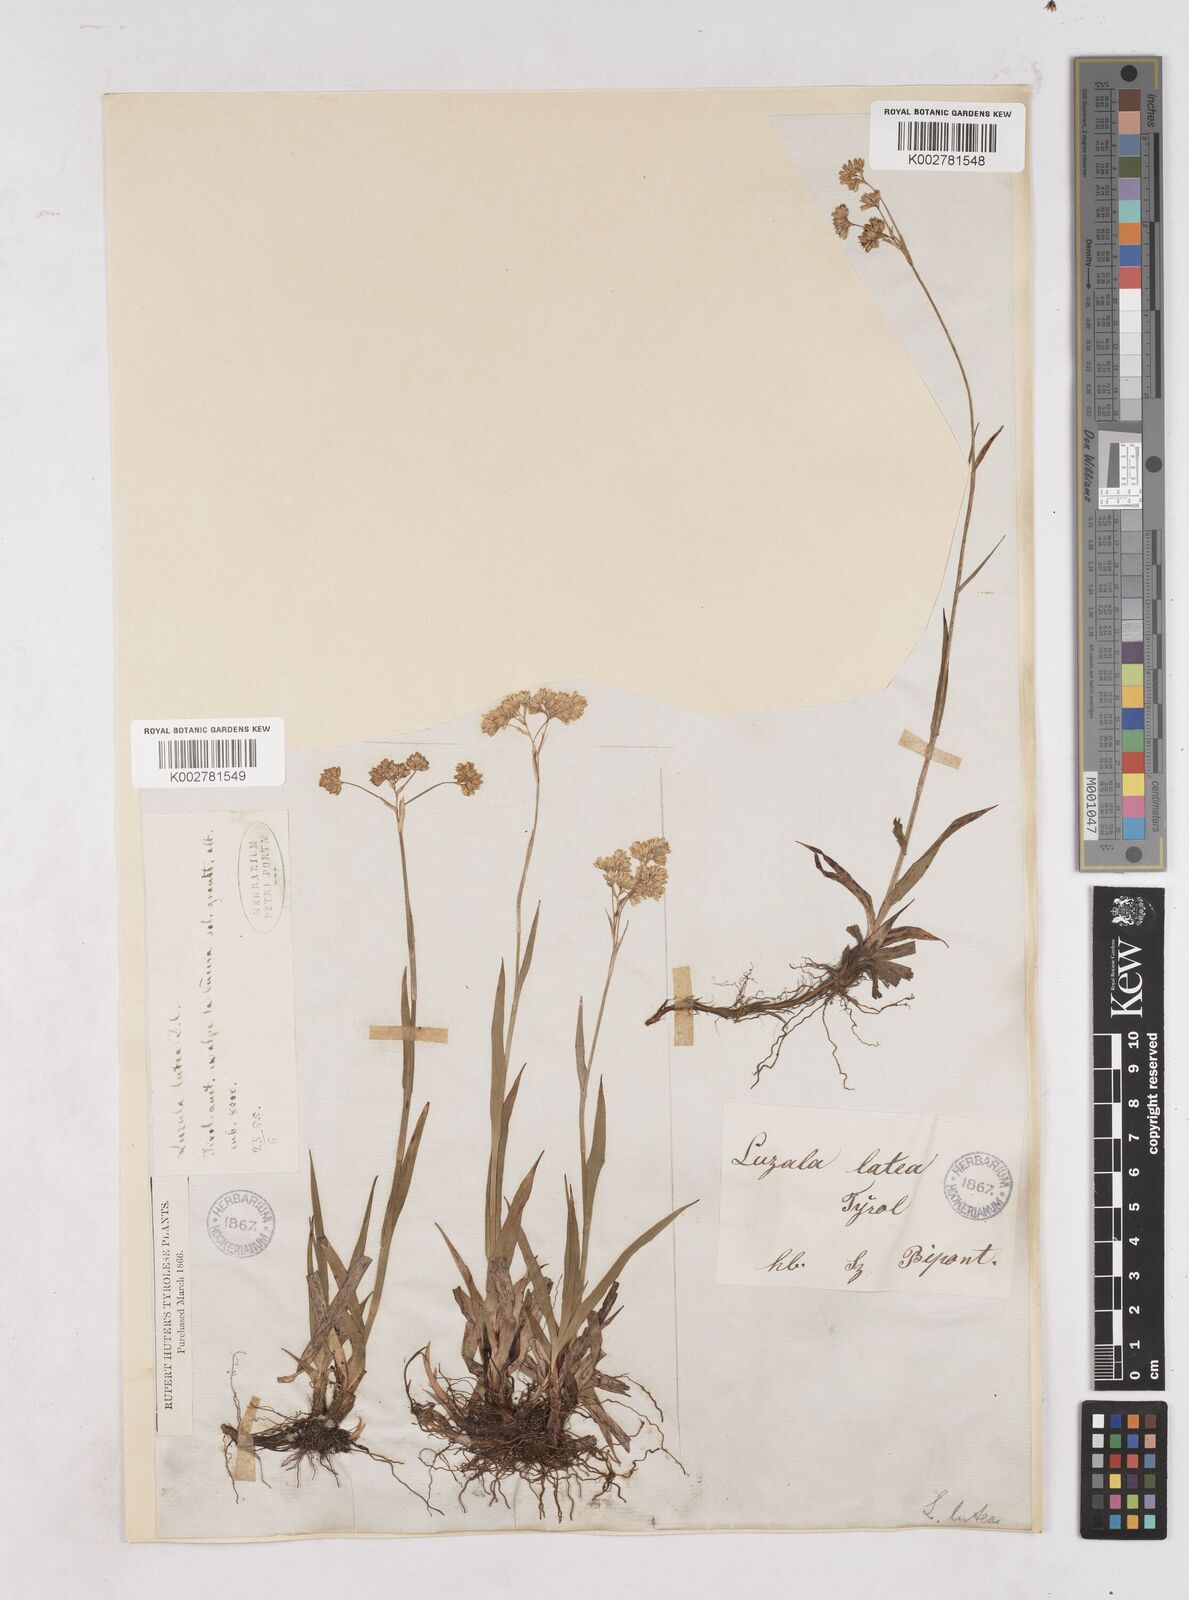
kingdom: Plantae
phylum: Tracheophyta
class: Liliopsida
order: Poales
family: Juncaceae
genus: Luzula
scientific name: Luzula lutea
